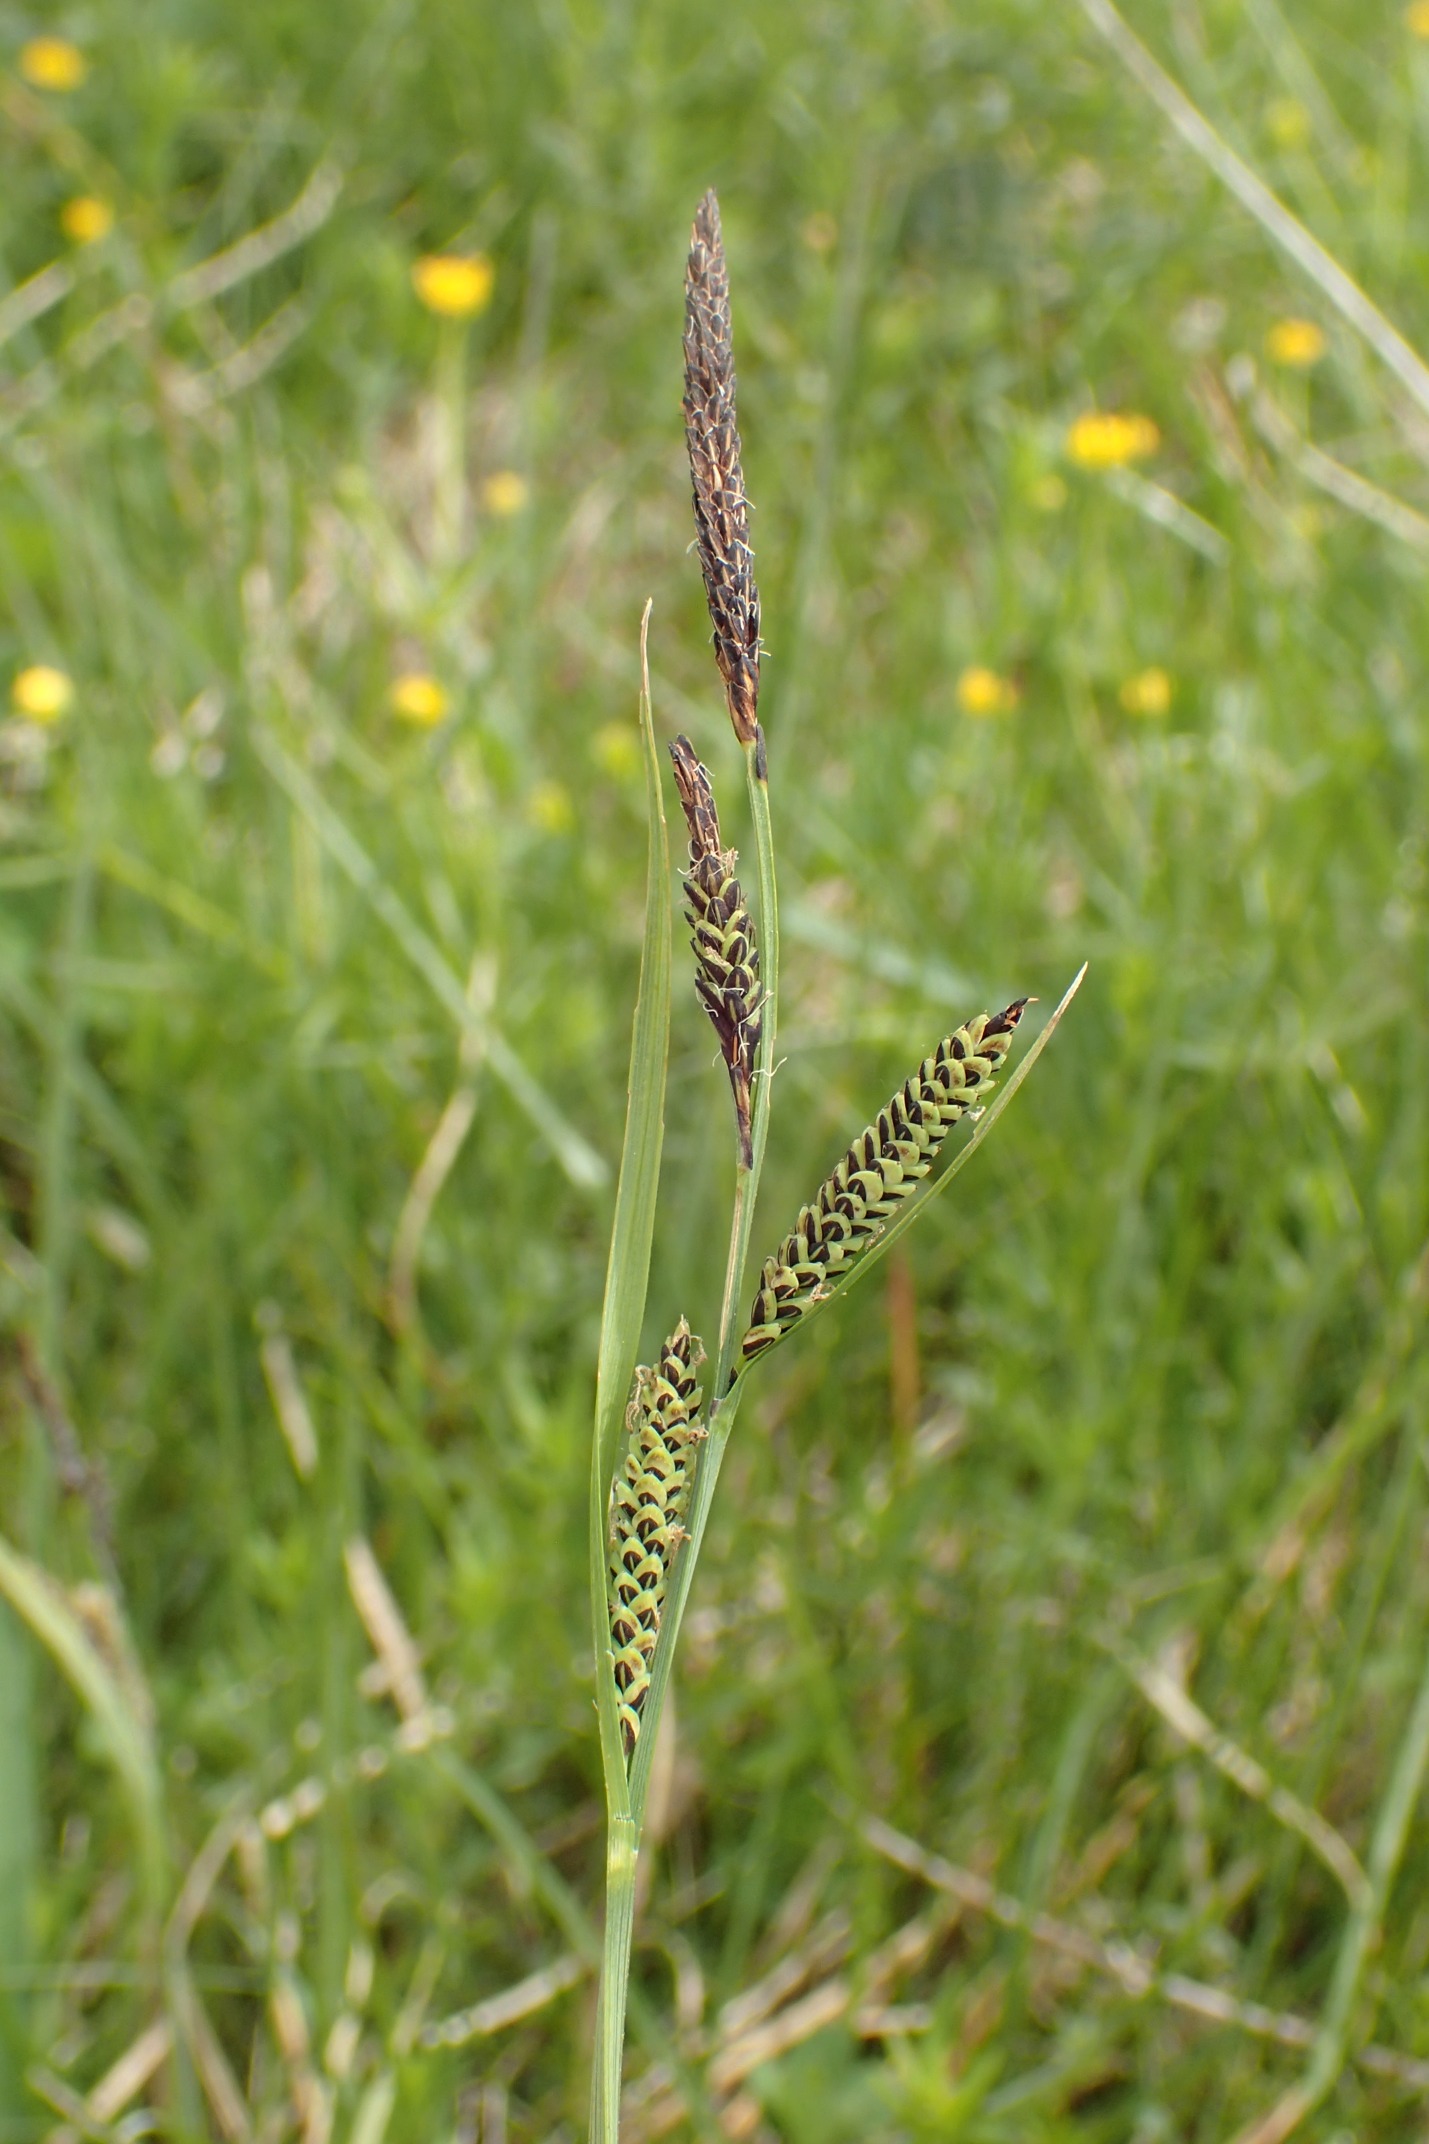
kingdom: Plantae
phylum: Tracheophyta
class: Liliopsida
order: Poales
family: Cyperaceae
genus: Carex
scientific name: Carex nigra
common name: Knold-star
